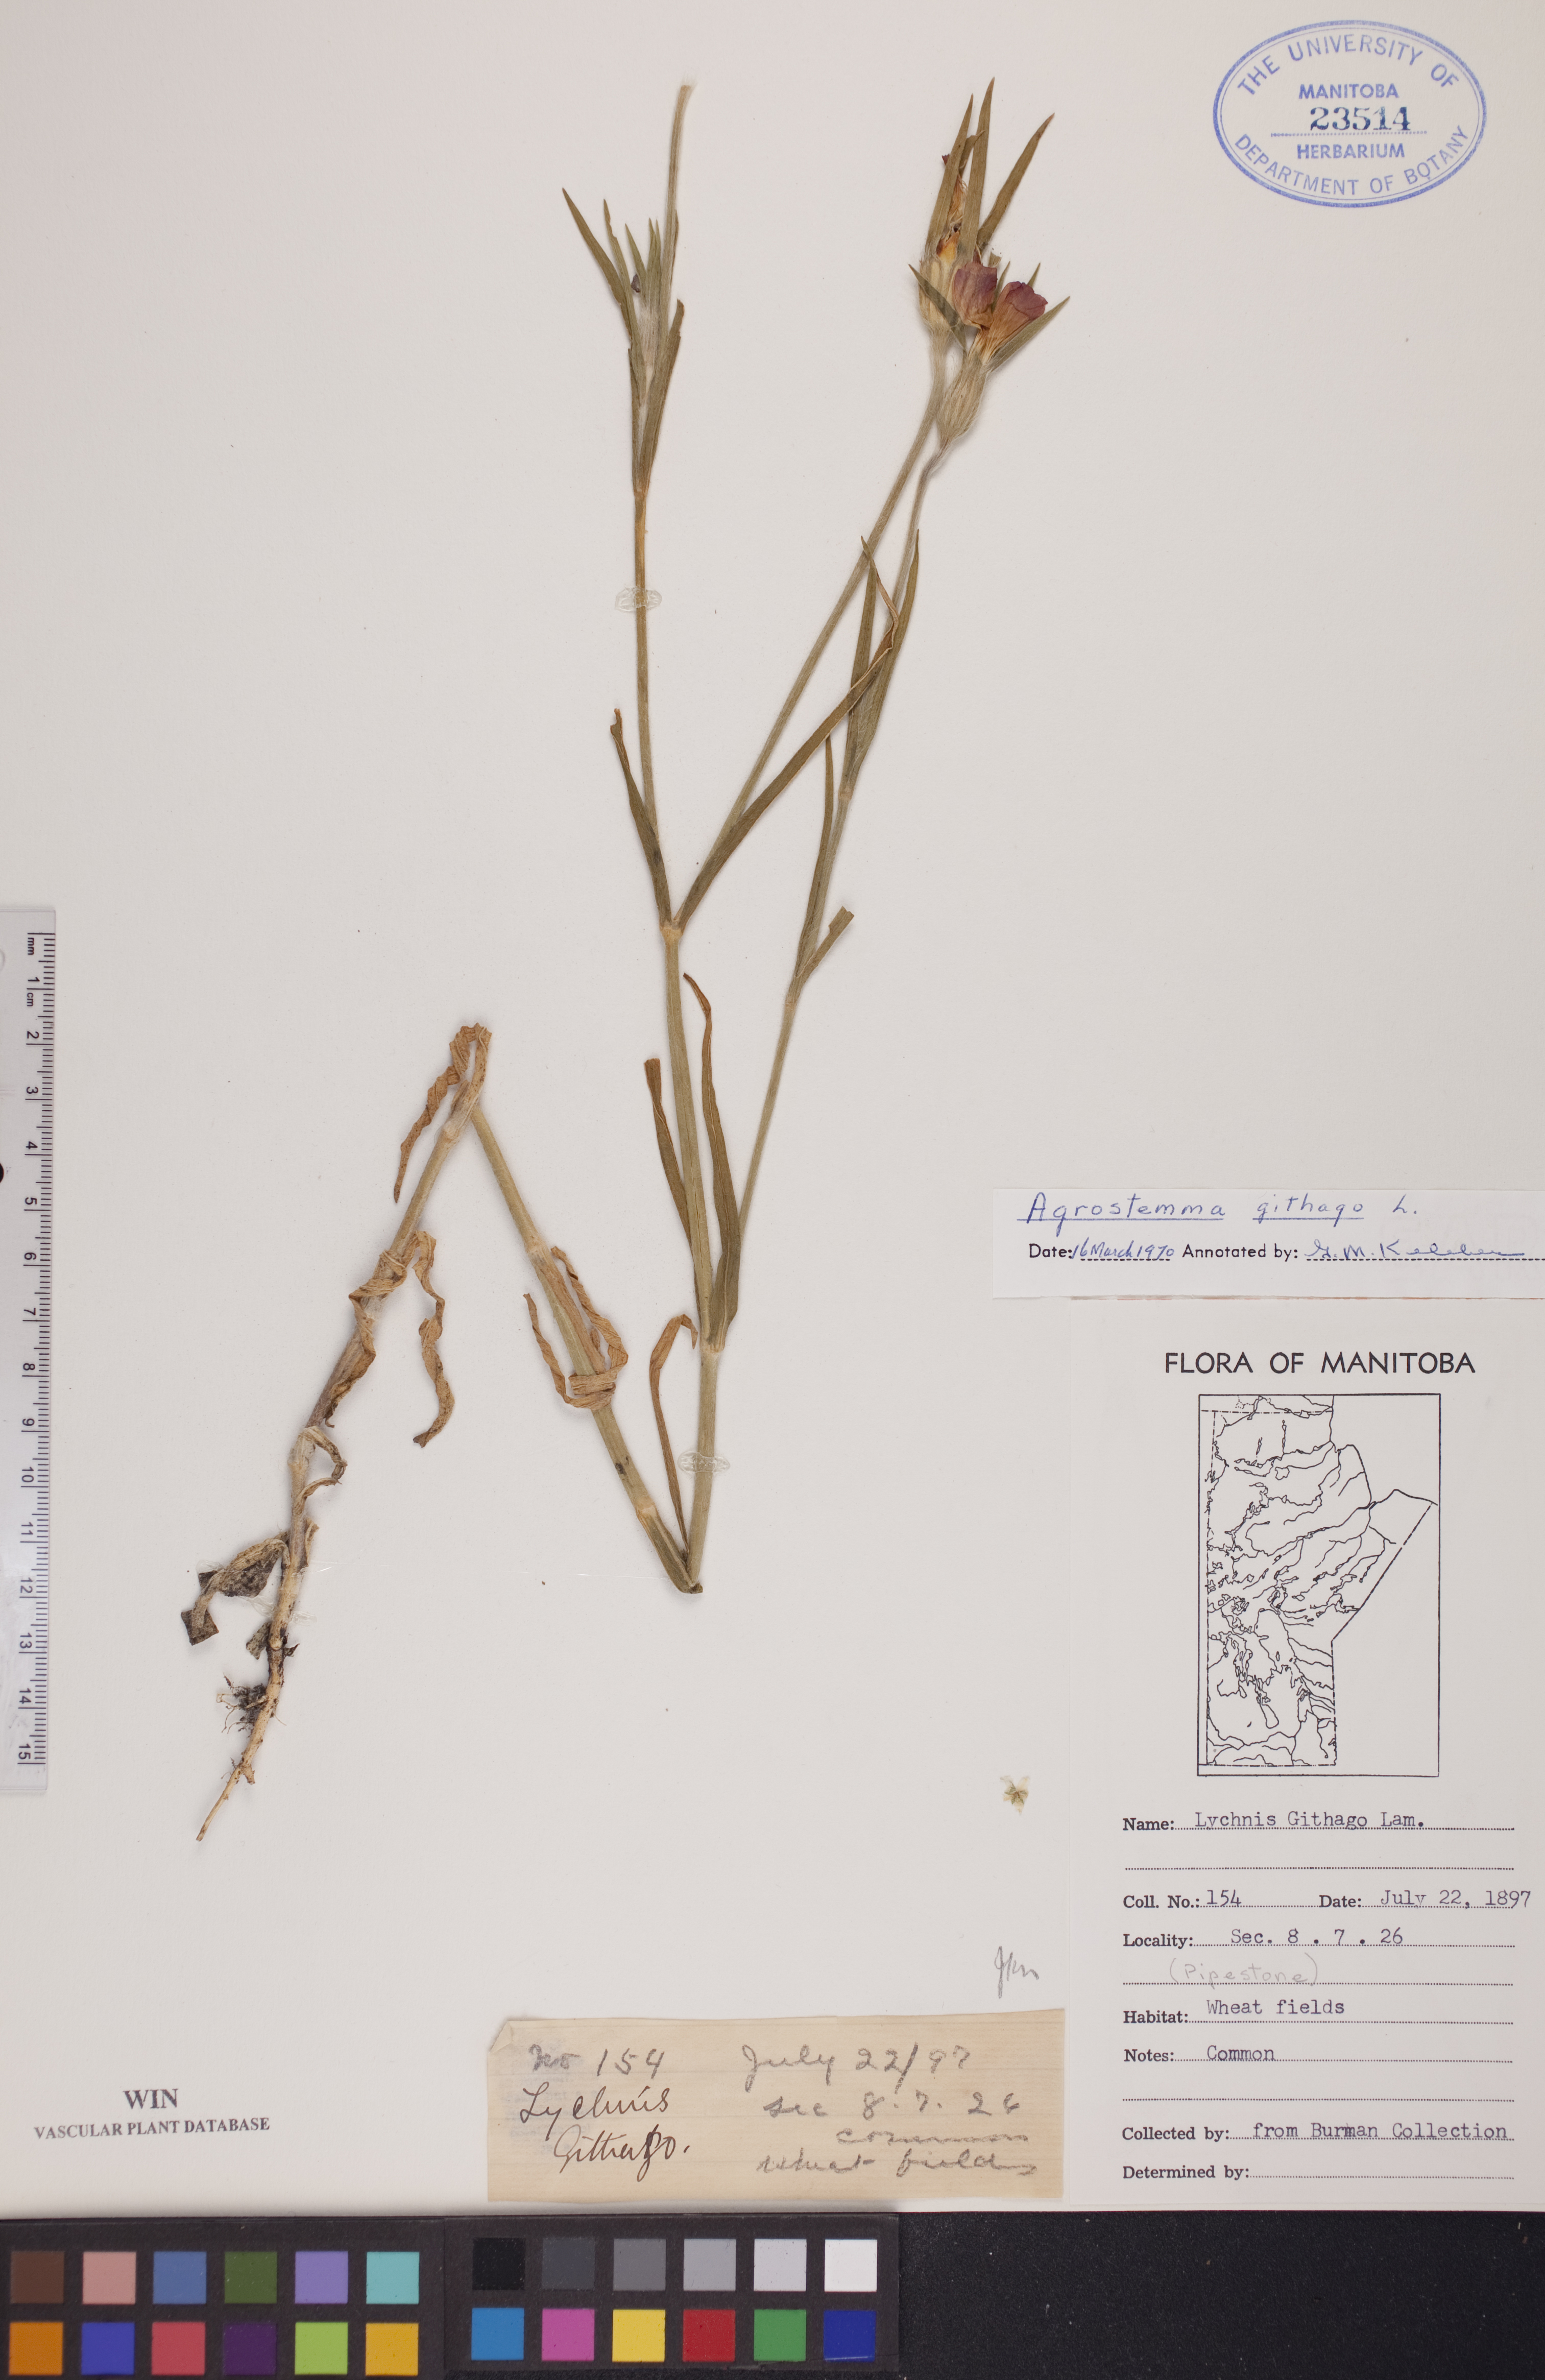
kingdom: Plantae
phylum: Tracheophyta
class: Magnoliopsida
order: Caryophyllales
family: Caryophyllaceae
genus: Agrostemma
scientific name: Agrostemma githago
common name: Common corncockle
